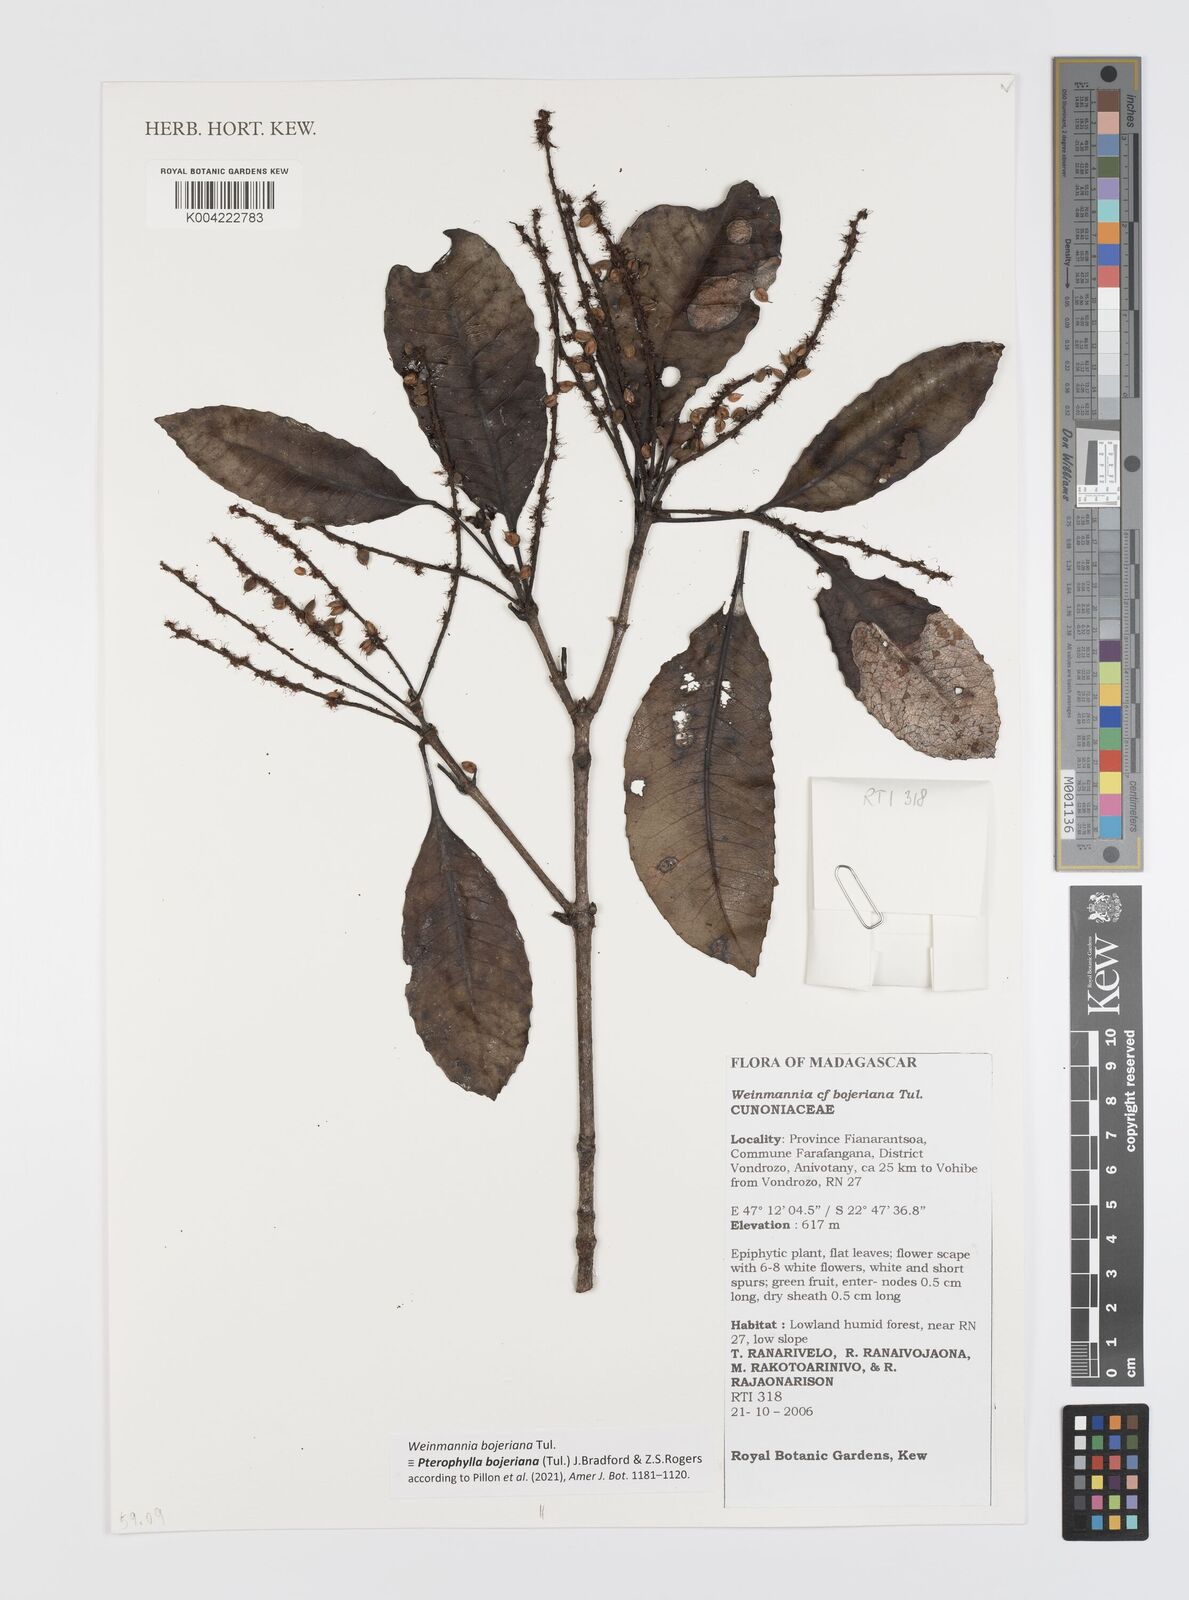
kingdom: Plantae
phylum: Tracheophyta
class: Magnoliopsida
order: Oxalidales
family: Cunoniaceae
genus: Pterophylla
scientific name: Pterophylla
